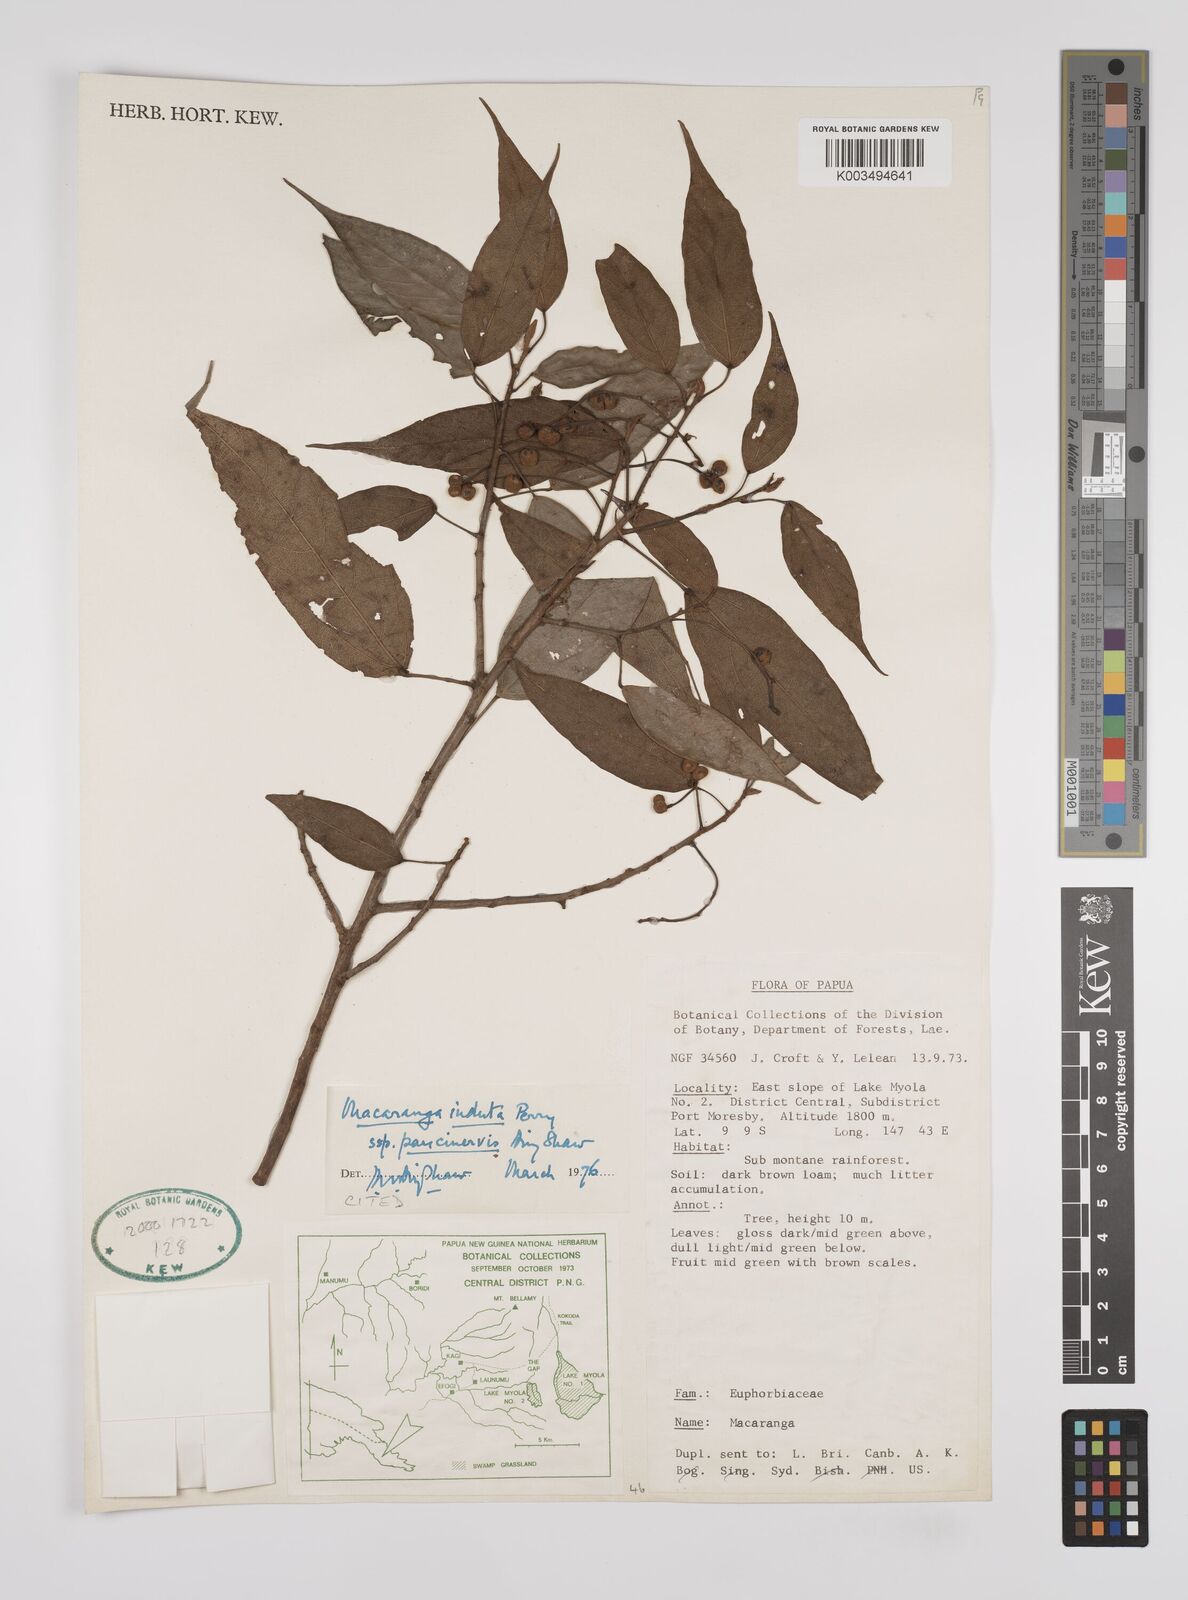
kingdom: Plantae
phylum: Tracheophyta
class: Magnoliopsida
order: Malpighiales
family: Euphorbiaceae
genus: Macaranga
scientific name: Macaranga induta
